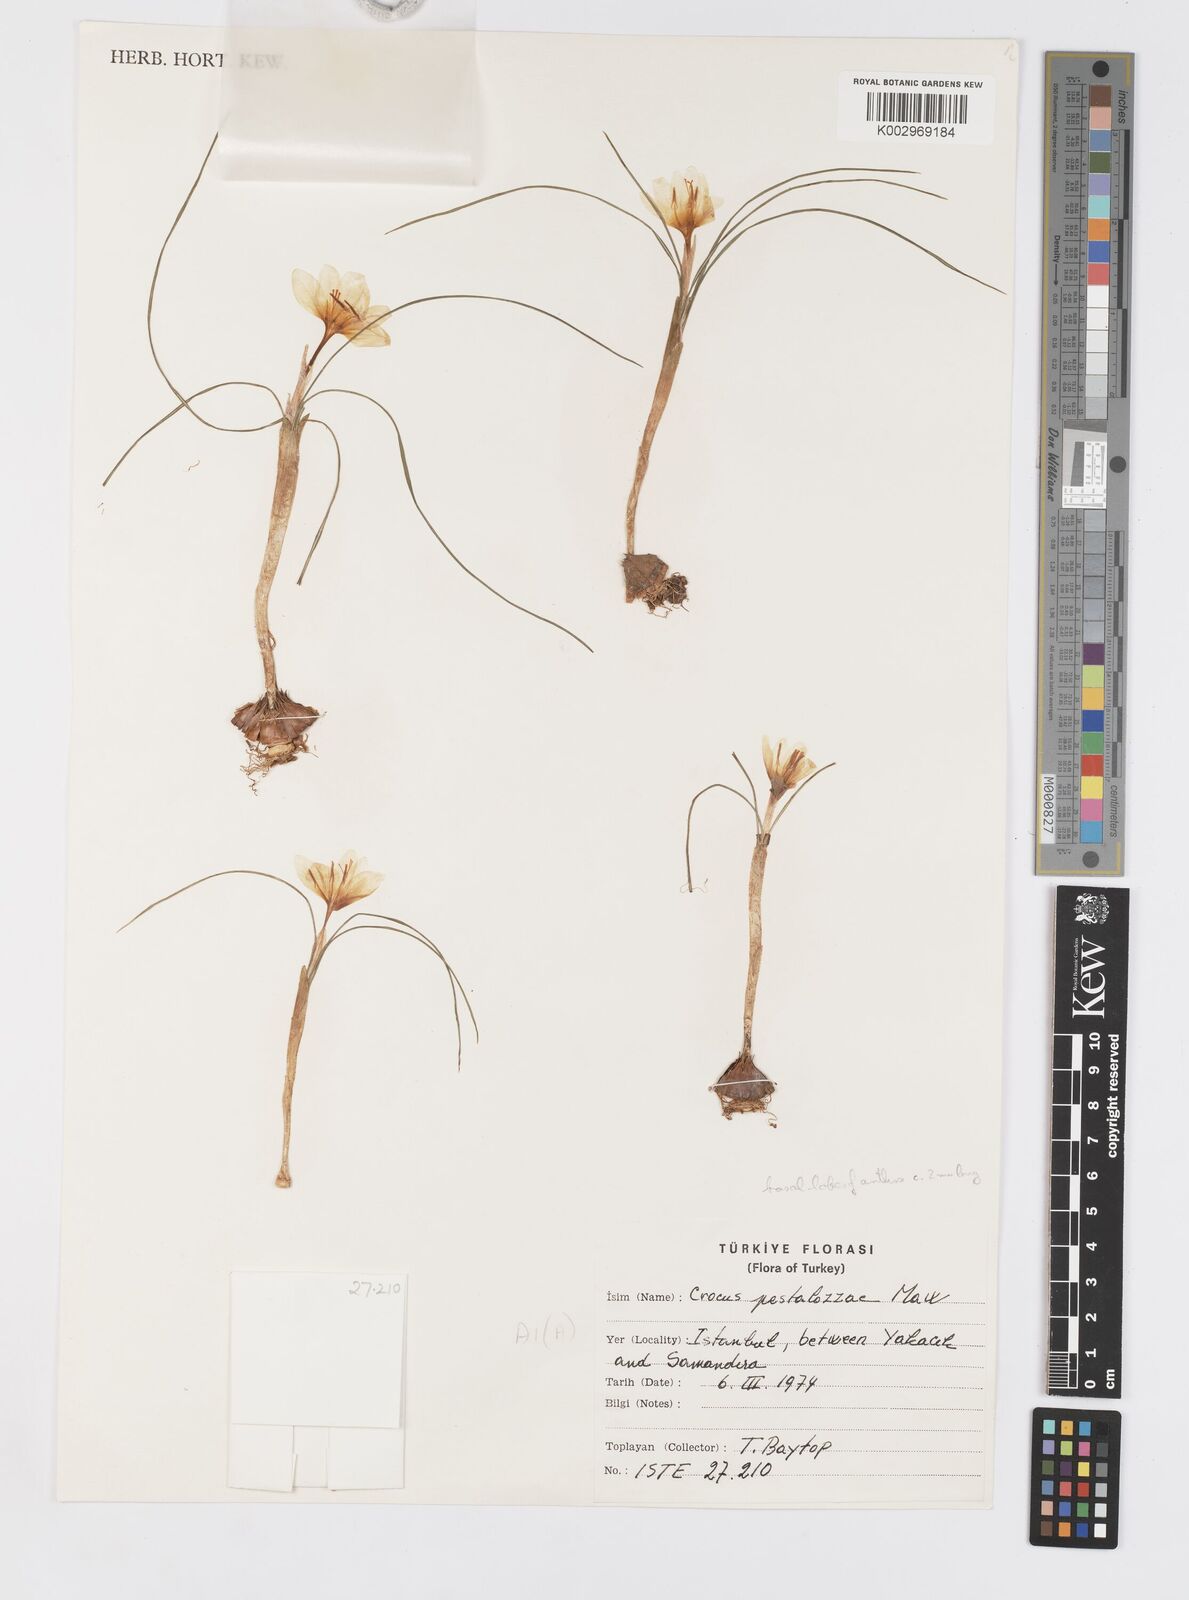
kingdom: Plantae
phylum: Tracheophyta
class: Liliopsida
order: Asparagales
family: Iridaceae
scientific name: Iridaceae
